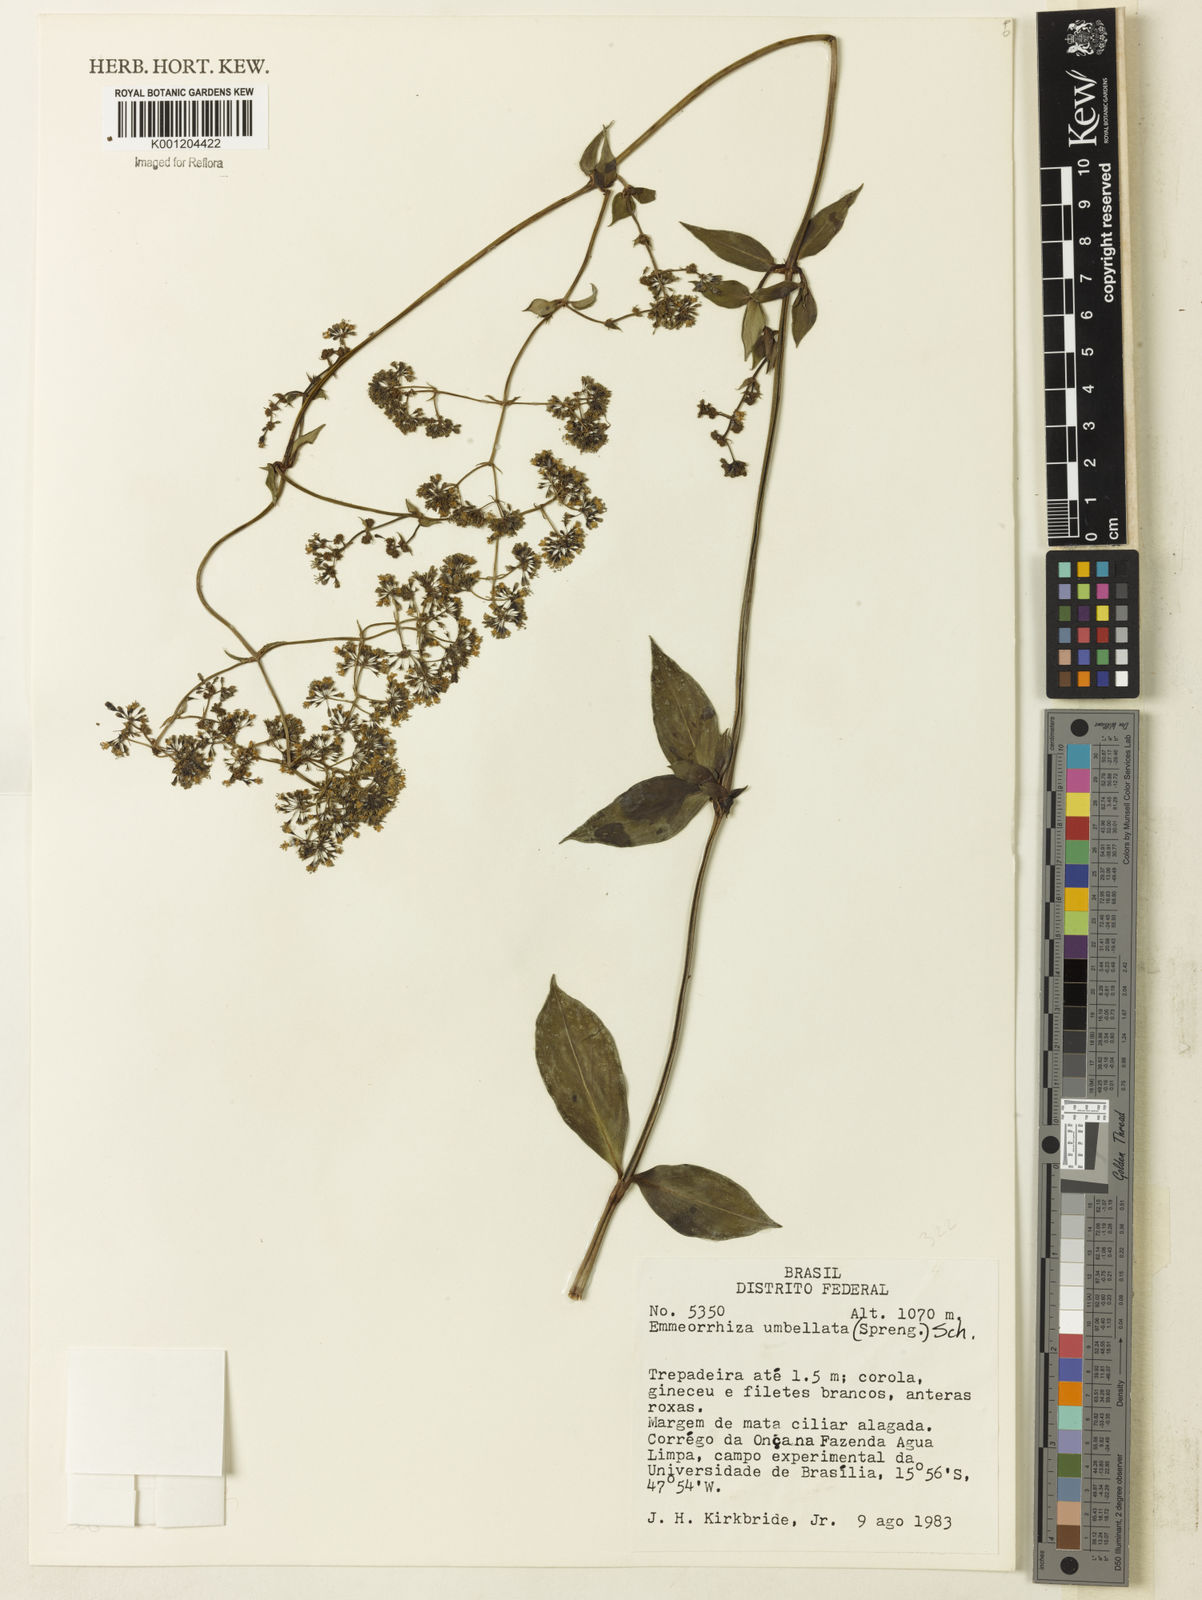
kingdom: Plantae
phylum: Tracheophyta
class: Magnoliopsida
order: Gentianales
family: Rubiaceae
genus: Emmeorhiza
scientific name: Emmeorhiza umbellata
